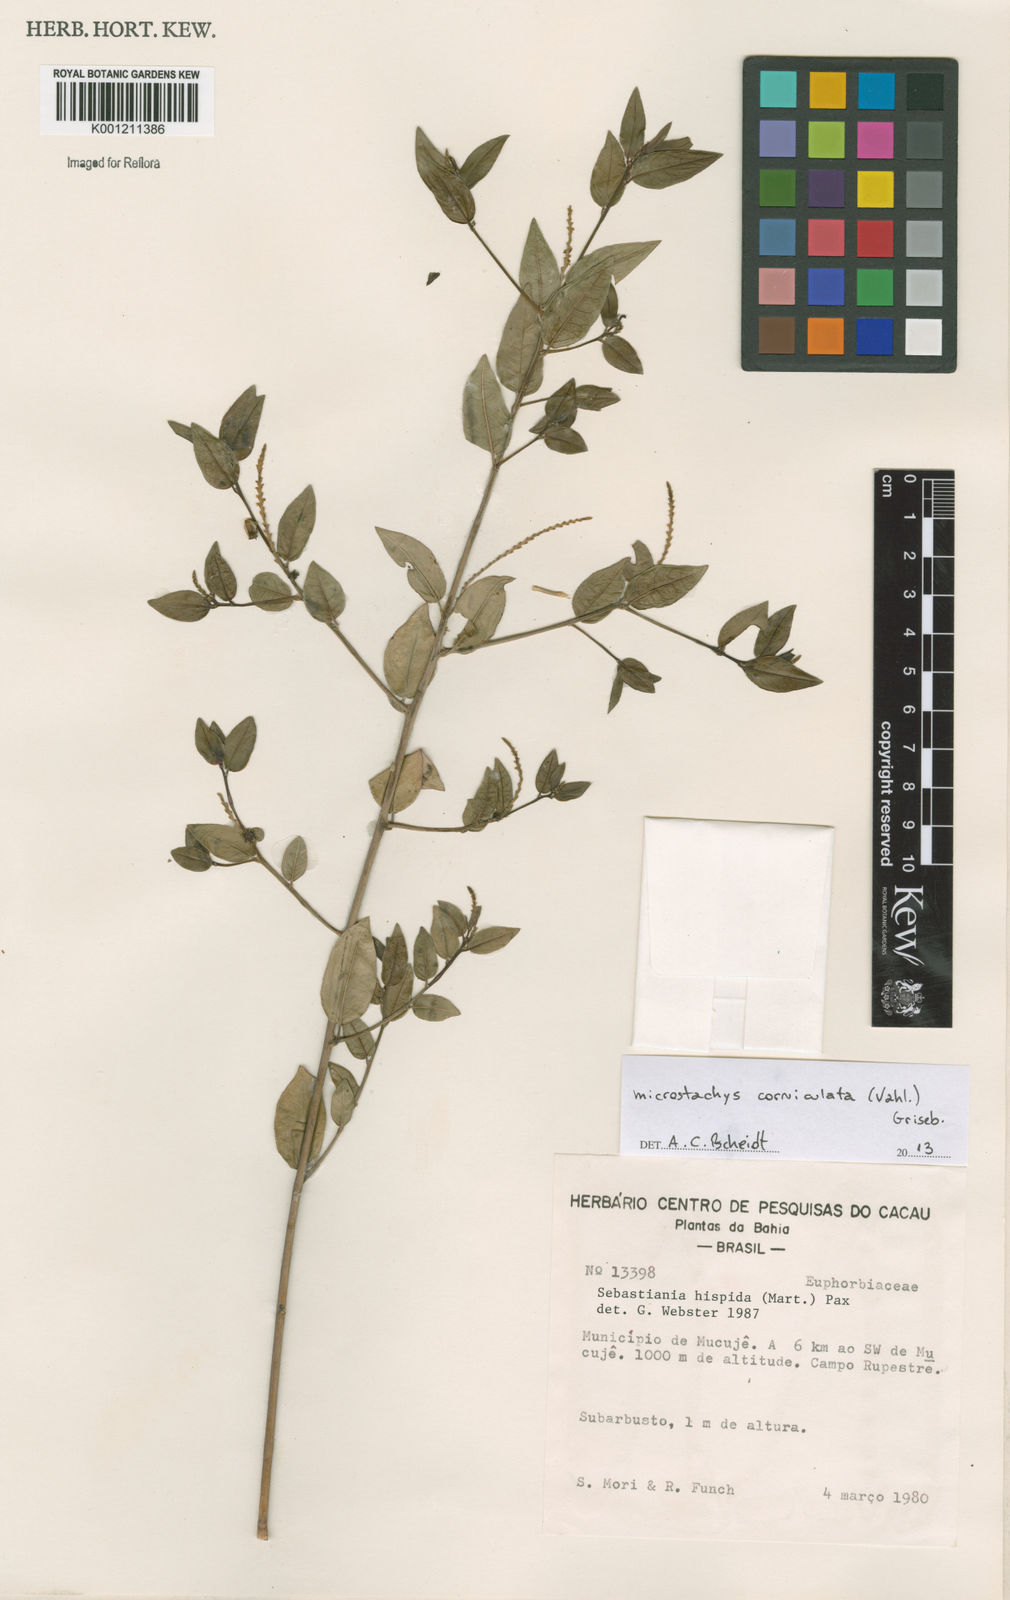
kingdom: Plantae
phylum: Tracheophyta
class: Magnoliopsida
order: Malpighiales
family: Euphorbiaceae
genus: Microstachys
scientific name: Microstachys corniculata
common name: Hato tejas
